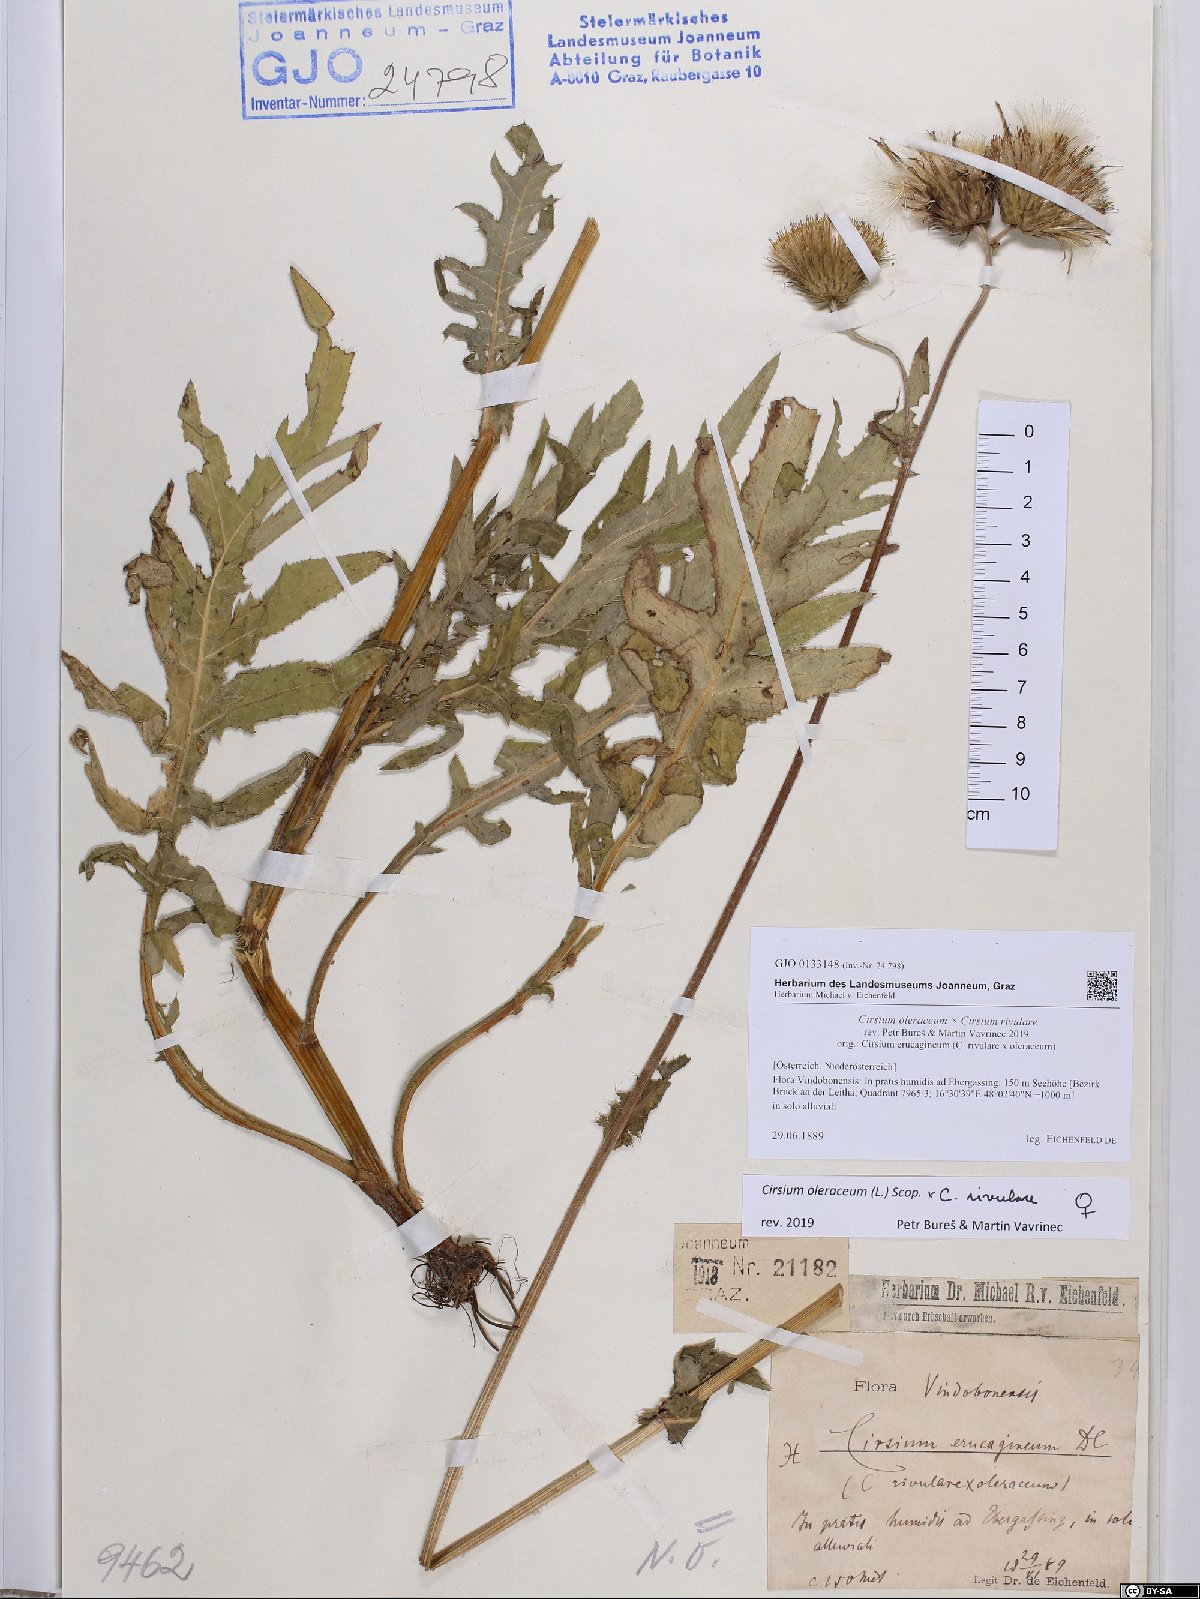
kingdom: Plantae
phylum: Tracheophyta
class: Magnoliopsida
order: Asterales
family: Asteraceae
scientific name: Asteraceae
